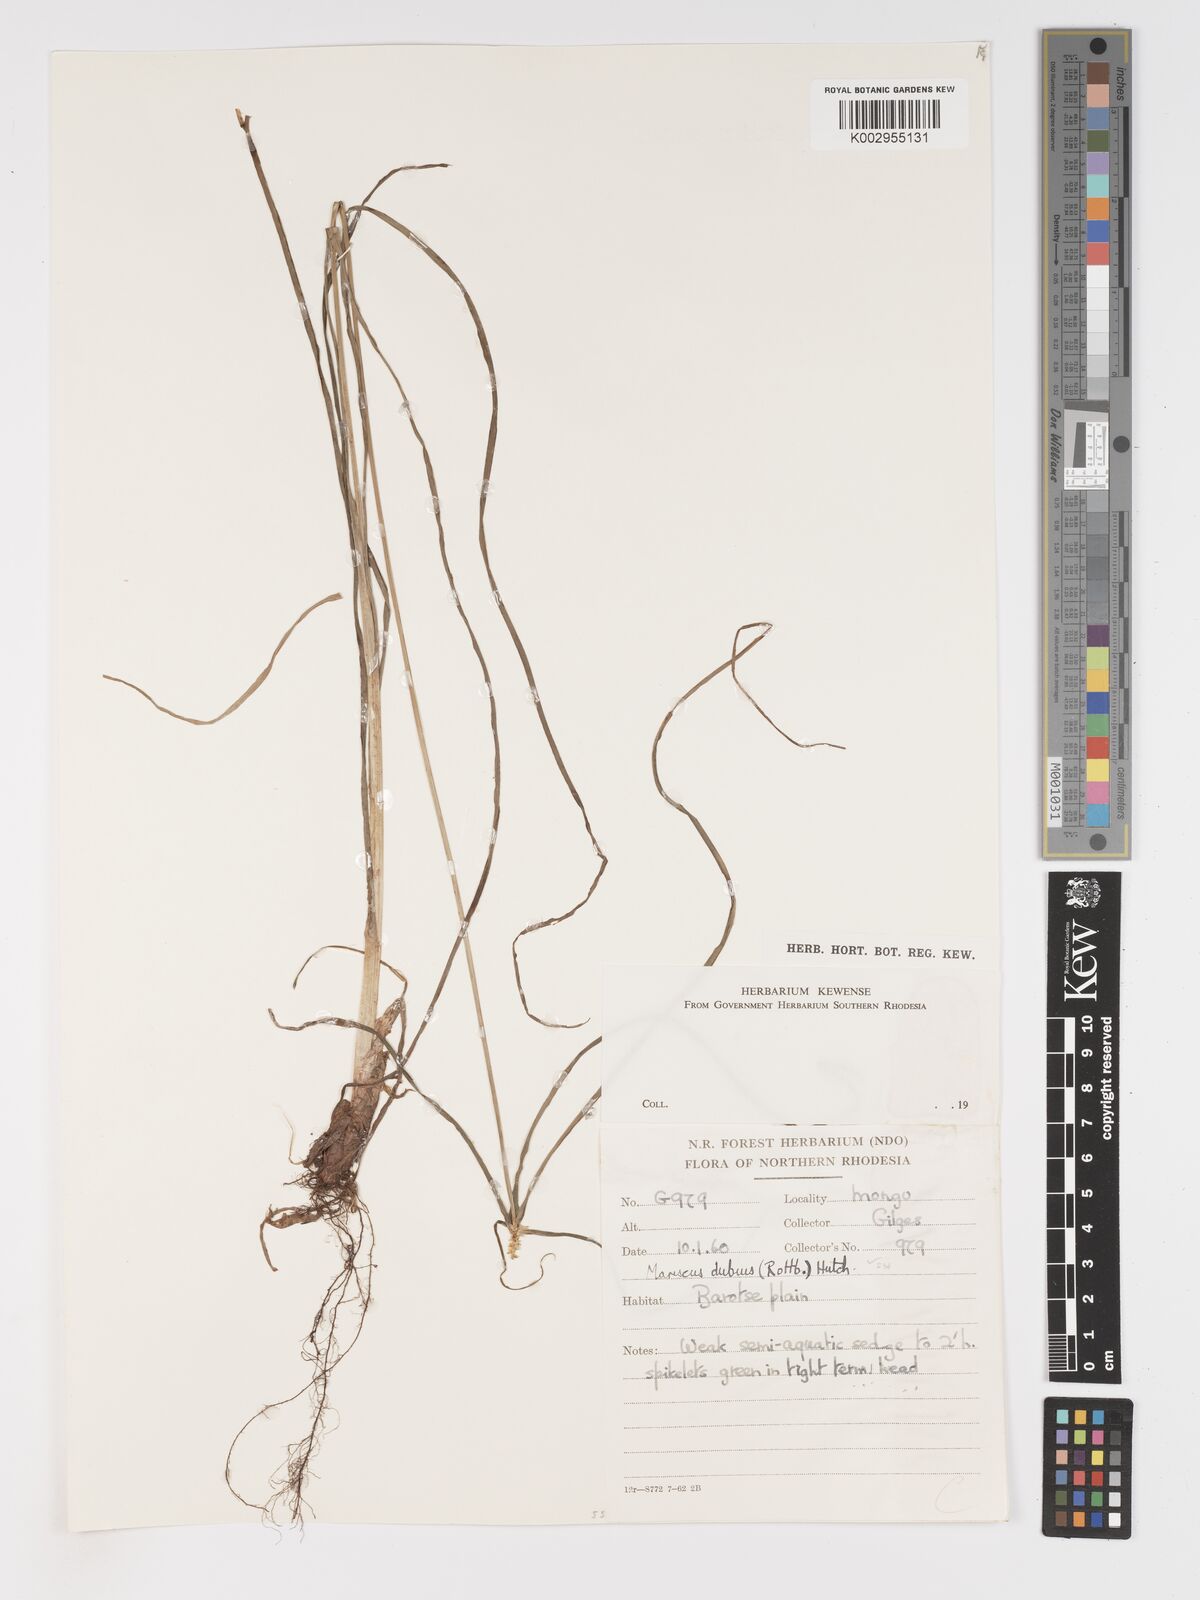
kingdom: Plantae
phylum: Tracheophyta
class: Liliopsida
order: Poales
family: Cyperaceae
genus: Cyperus
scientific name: Cyperus dubius
